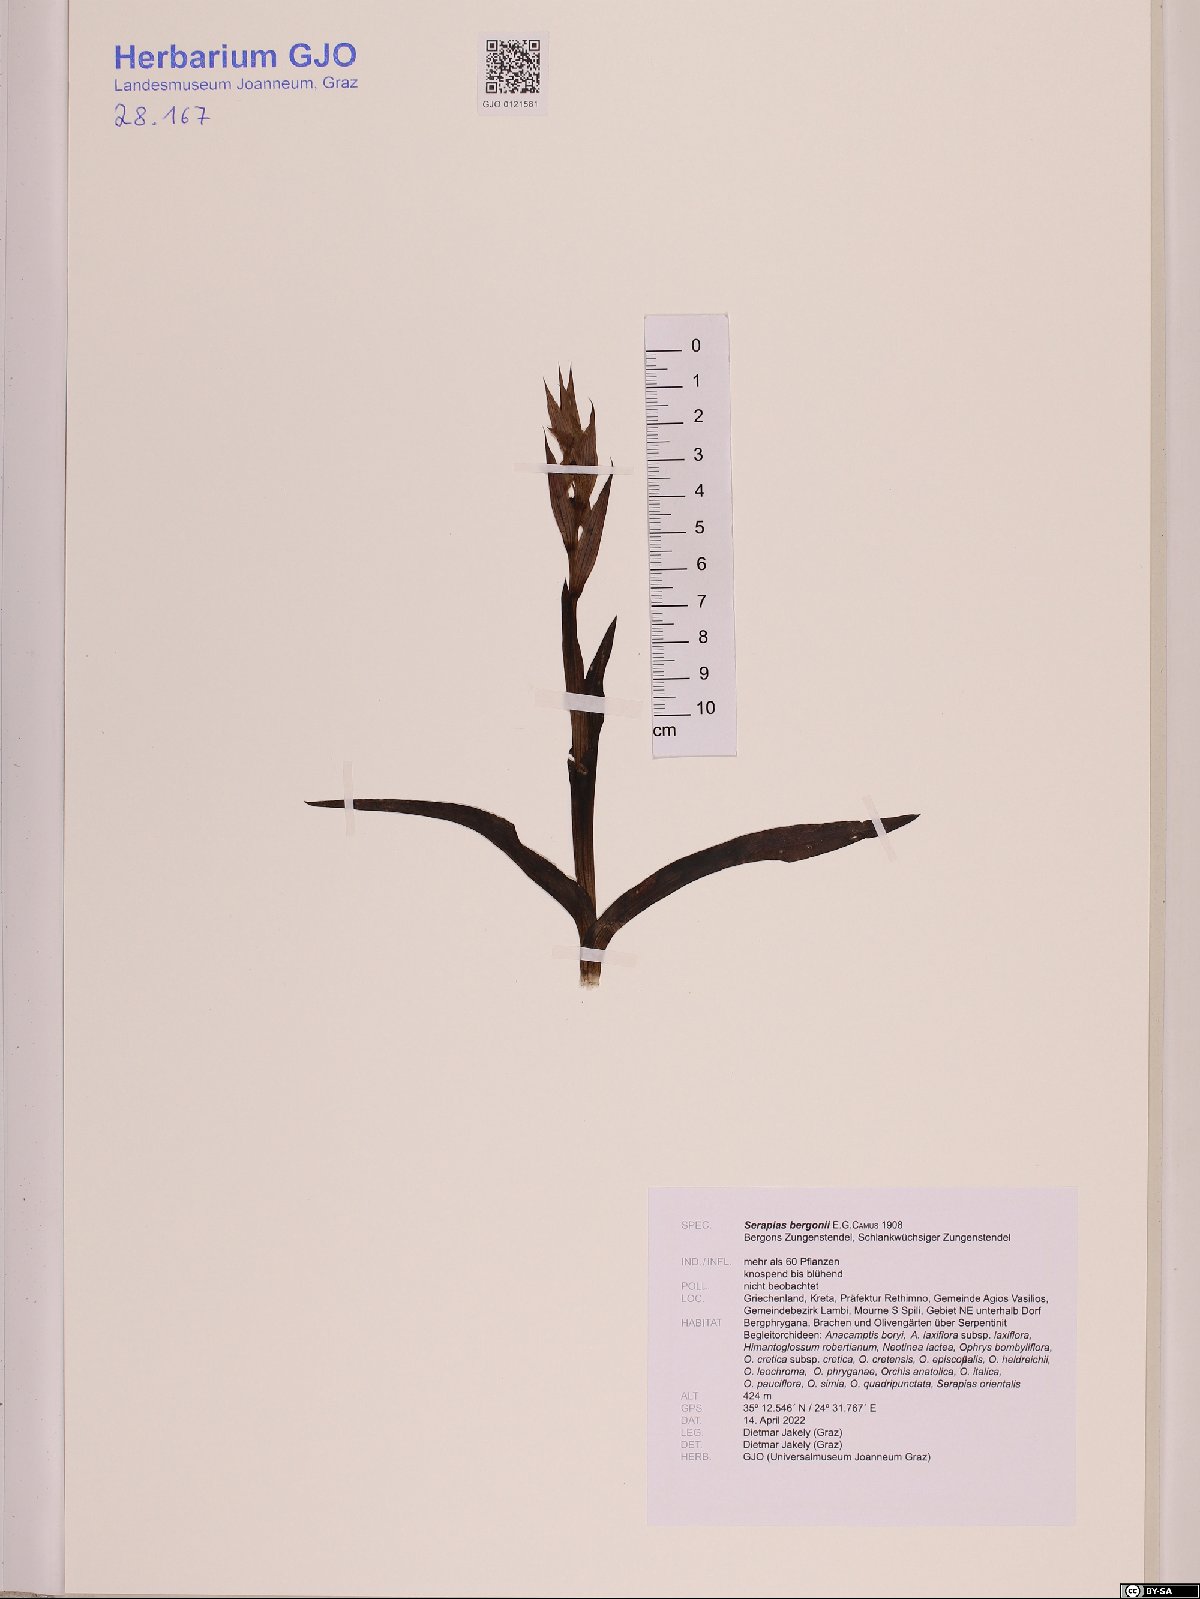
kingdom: Plantae
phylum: Tracheophyta
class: Liliopsida
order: Asparagales
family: Orchidaceae
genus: Serapias
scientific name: Serapias bergonii
